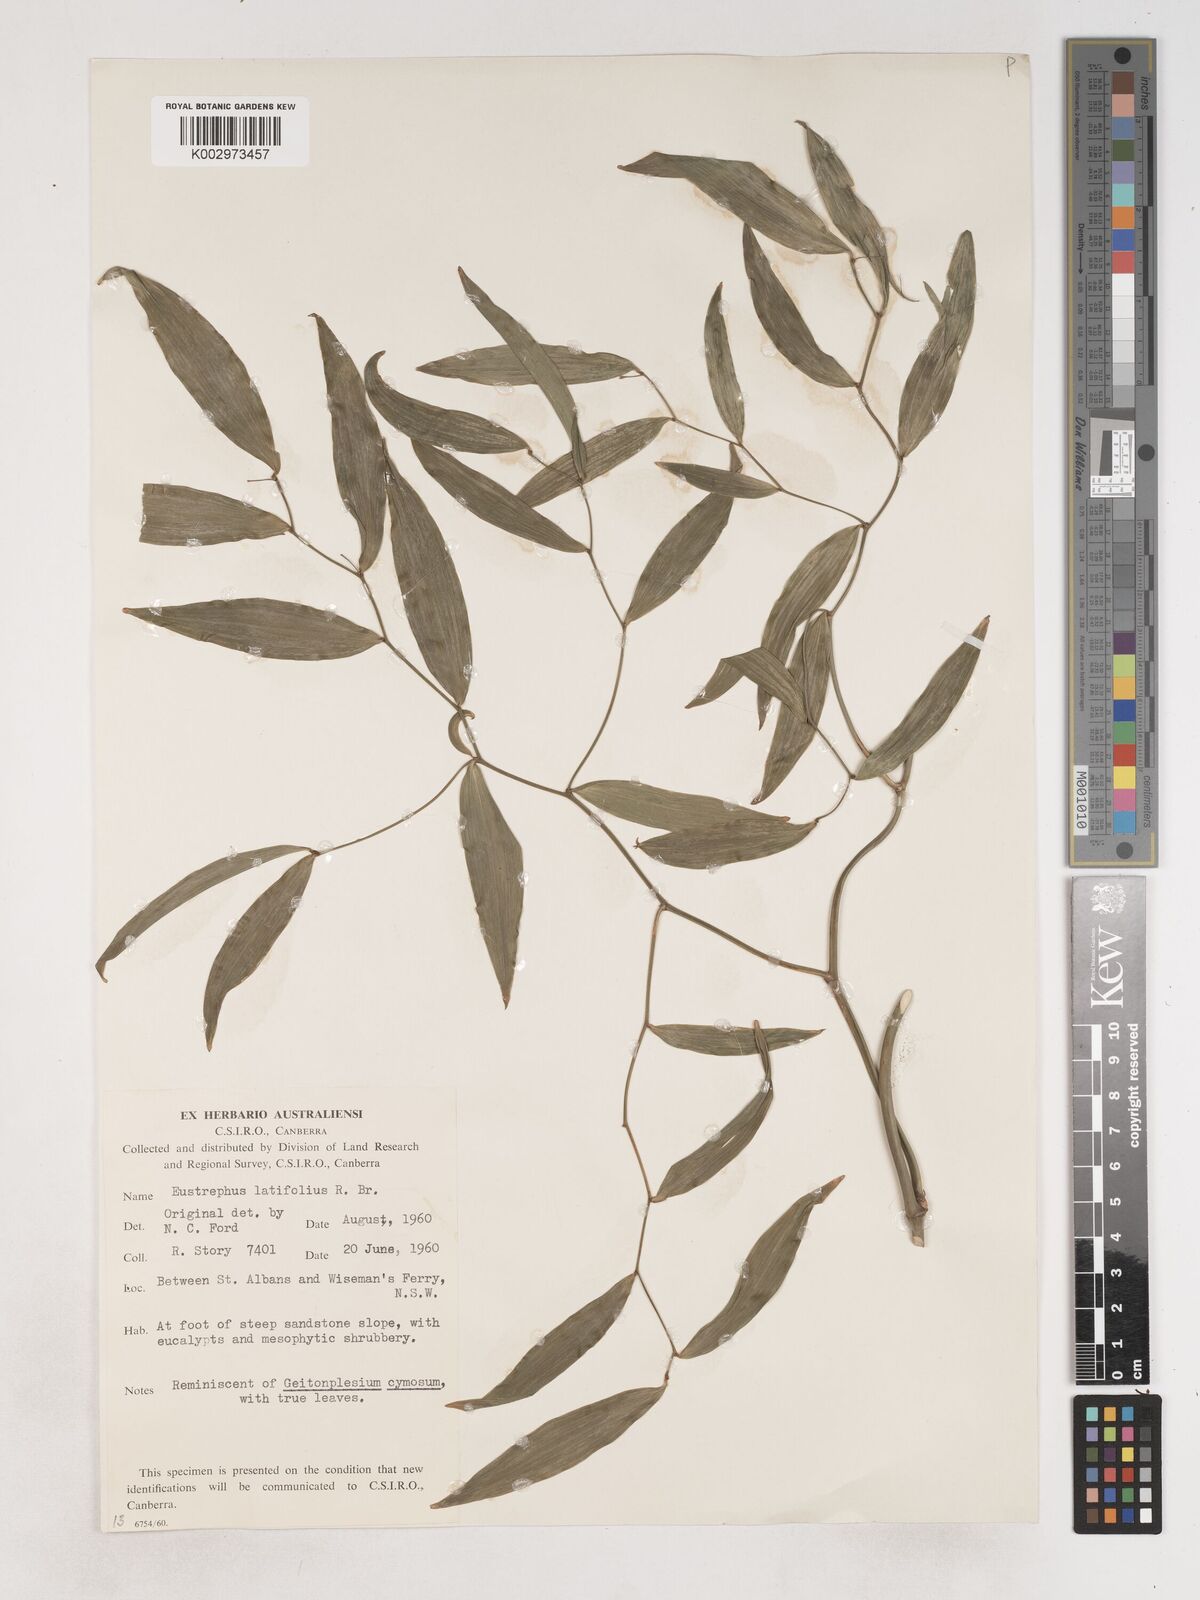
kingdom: Plantae
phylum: Tracheophyta
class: Liliopsida
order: Asparagales
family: Asparagaceae
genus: Eustrephus
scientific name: Eustrephus latifolius
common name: Orangevine
